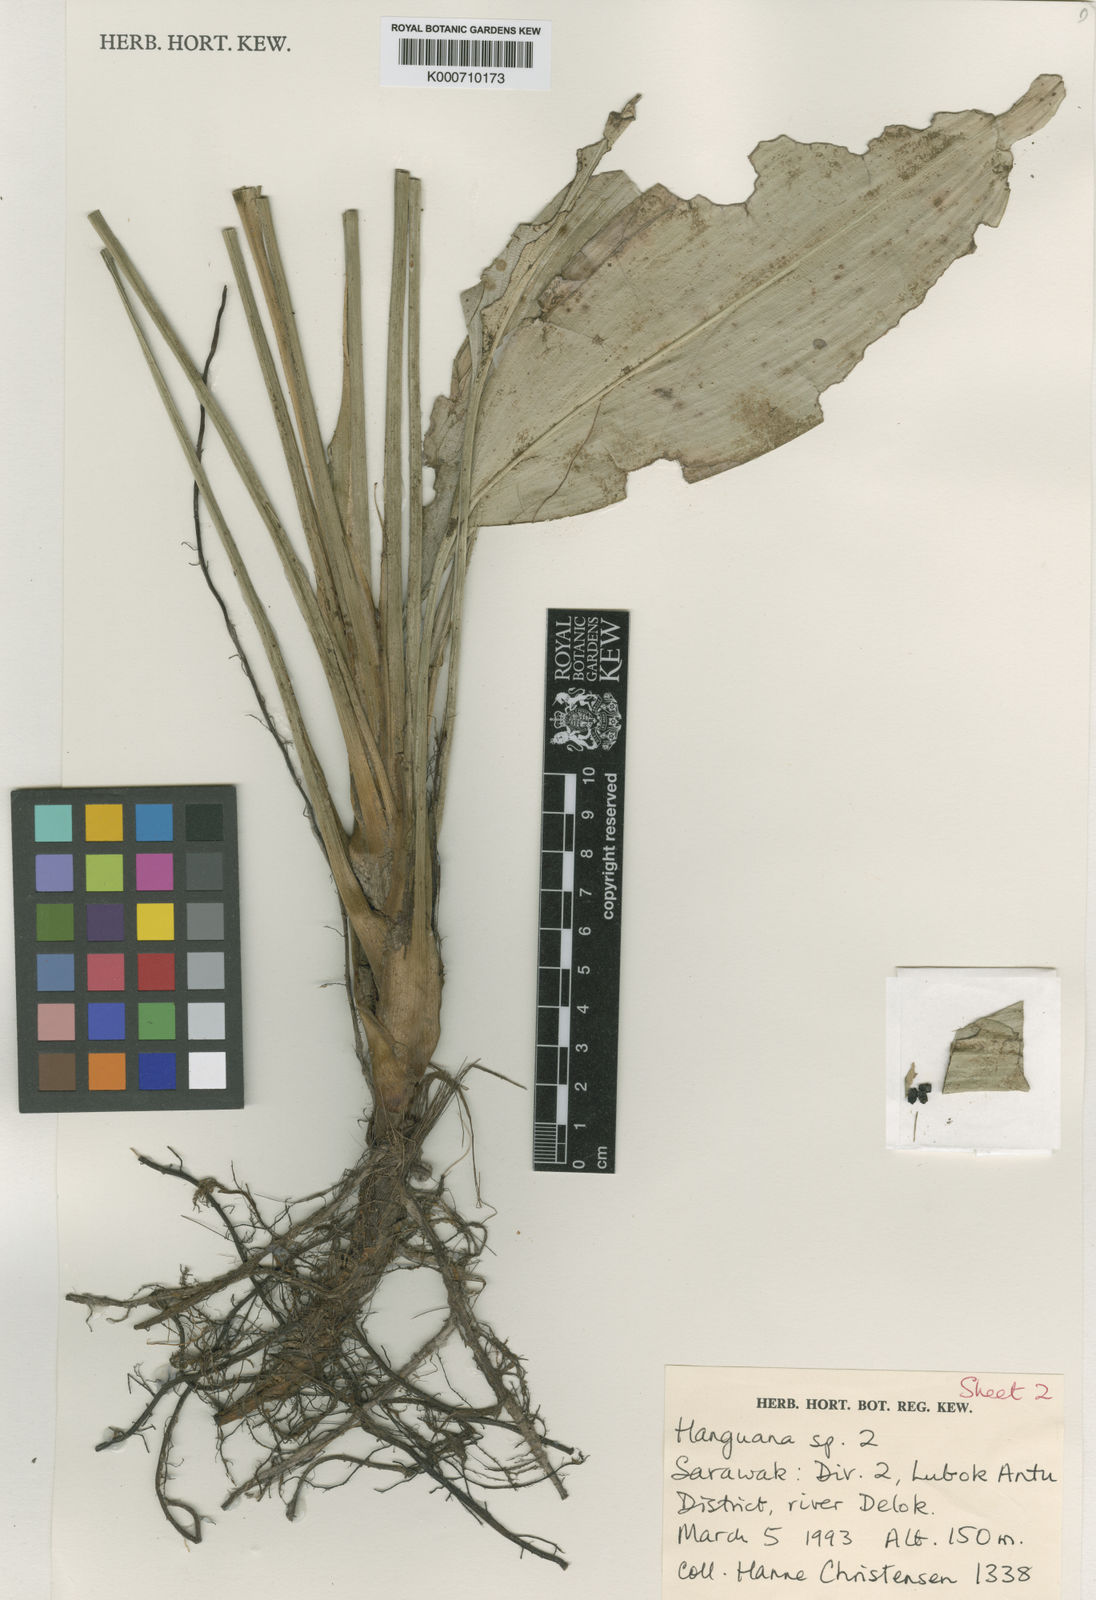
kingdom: Plantae
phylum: Tracheophyta
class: Liliopsida
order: Commelinales
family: Hanguanaceae
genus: Hanguana
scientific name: Hanguana
